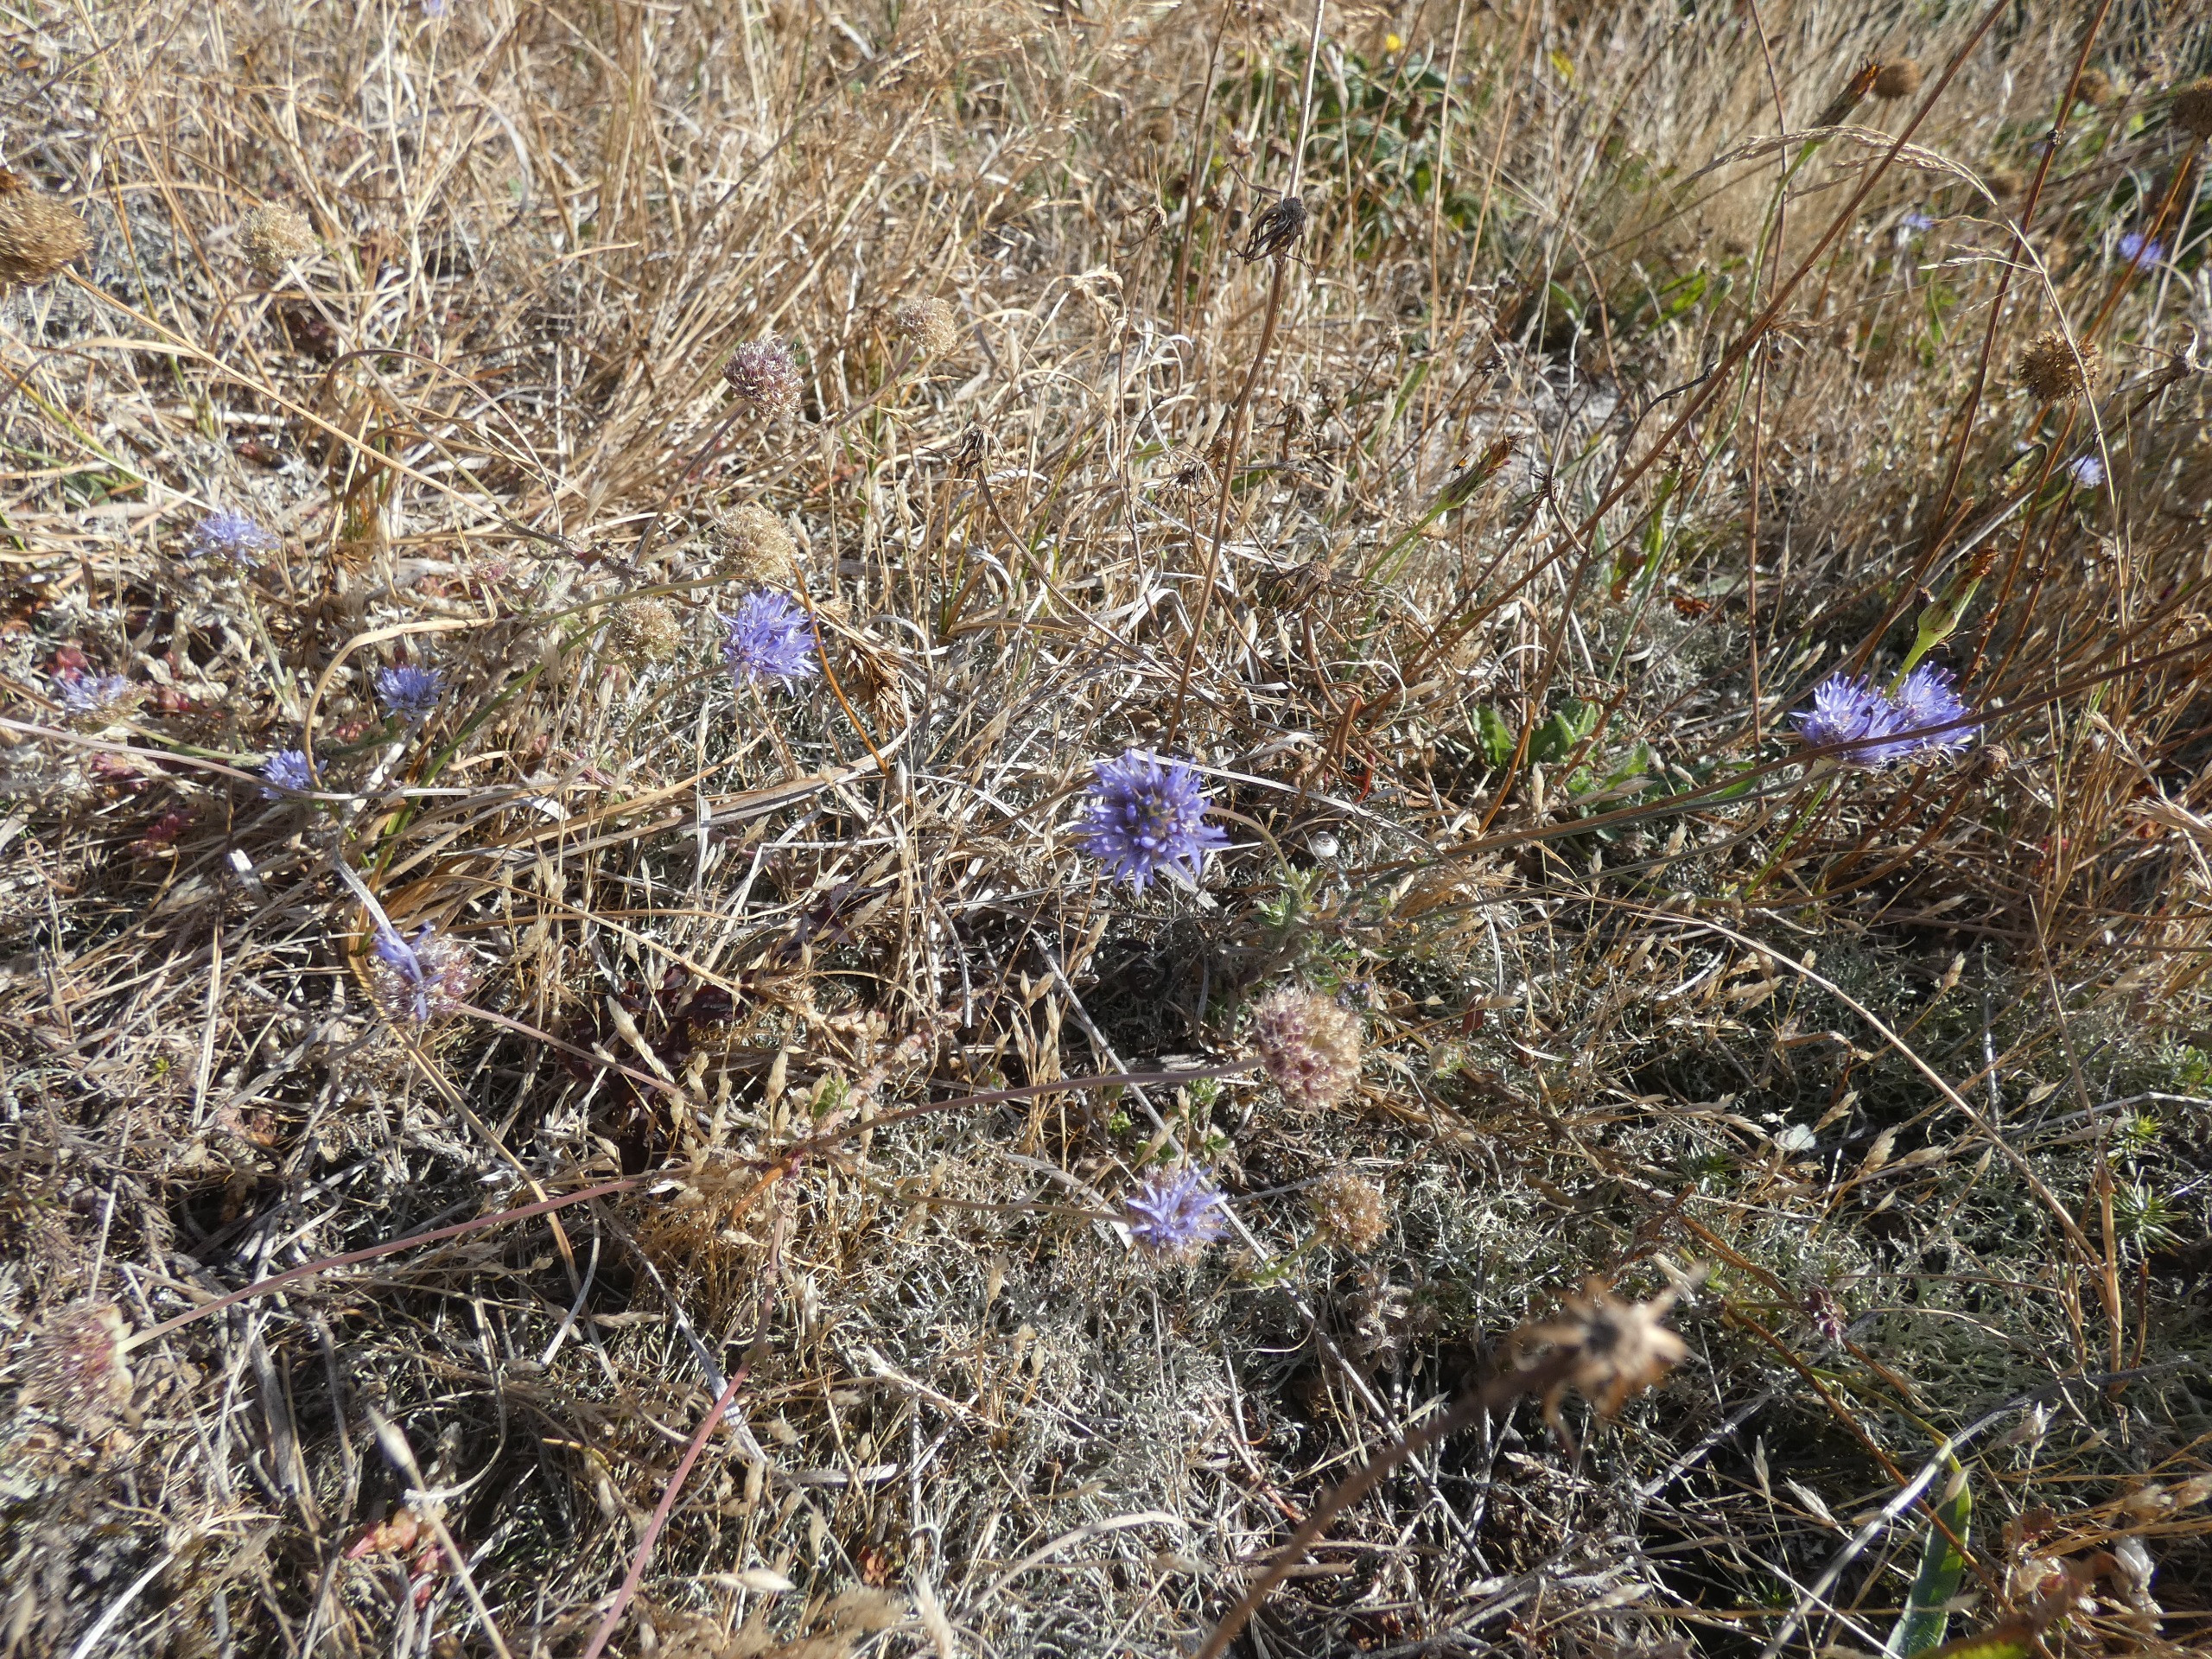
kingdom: Plantae
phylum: Tracheophyta
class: Magnoliopsida
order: Asterales
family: Campanulaceae
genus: Jasione
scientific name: Jasione montana
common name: Blåmunke
